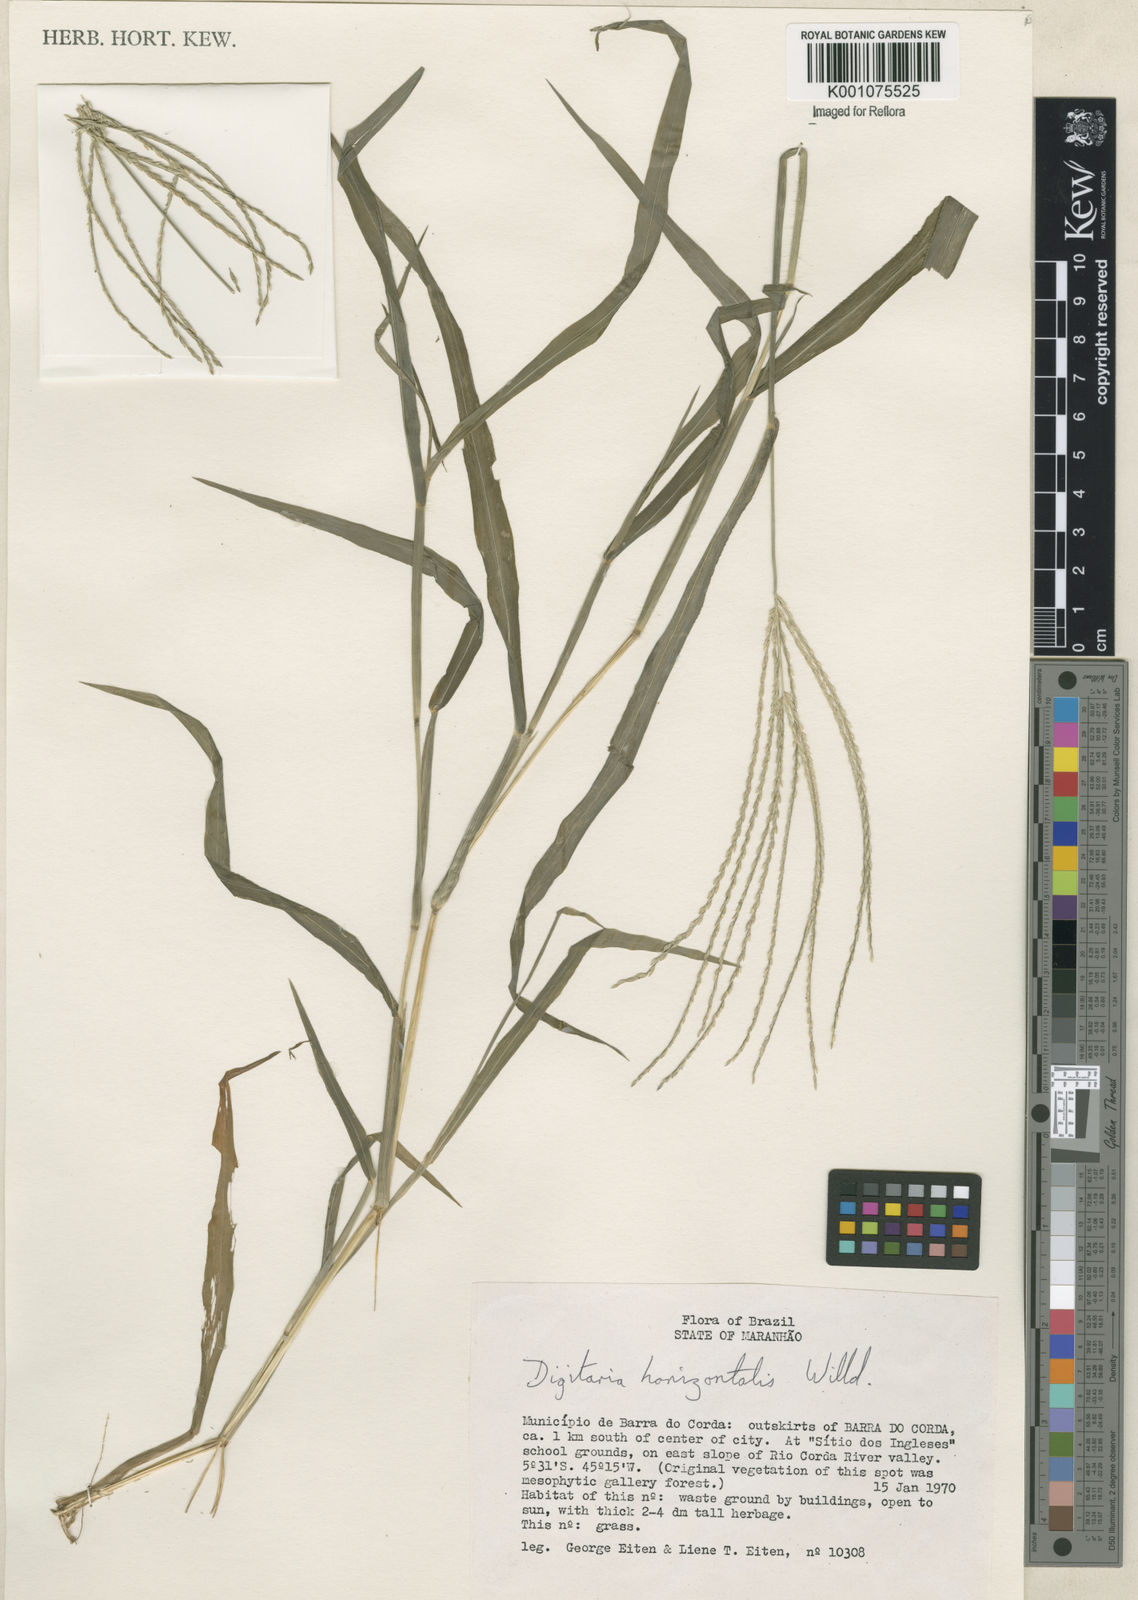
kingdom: Plantae
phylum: Tracheophyta
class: Liliopsida
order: Poales
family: Poaceae
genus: Digitaria
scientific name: Digitaria horizontalis
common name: Jamaican crabgrass
